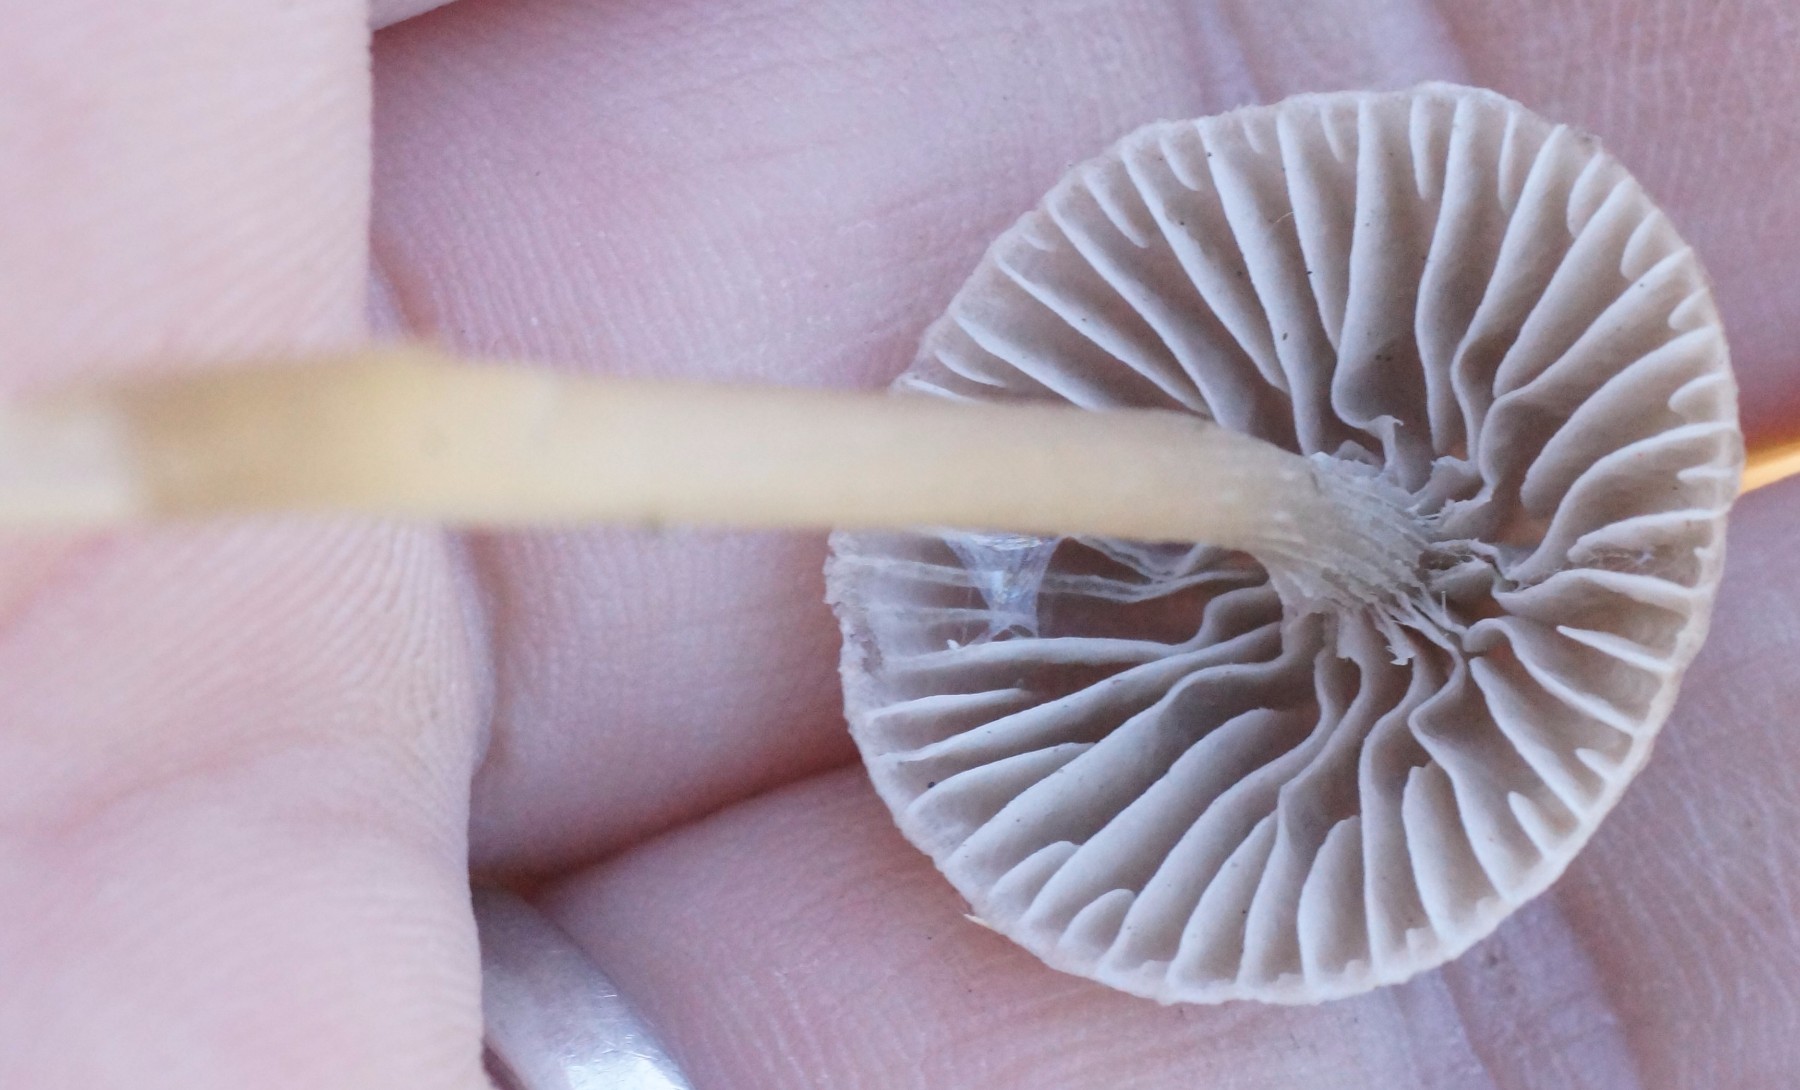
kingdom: Fungi
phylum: Basidiomycota
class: Agaricomycetes
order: Agaricales
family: Mycenaceae
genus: Mycena
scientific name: Mycena
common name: huesvamp
